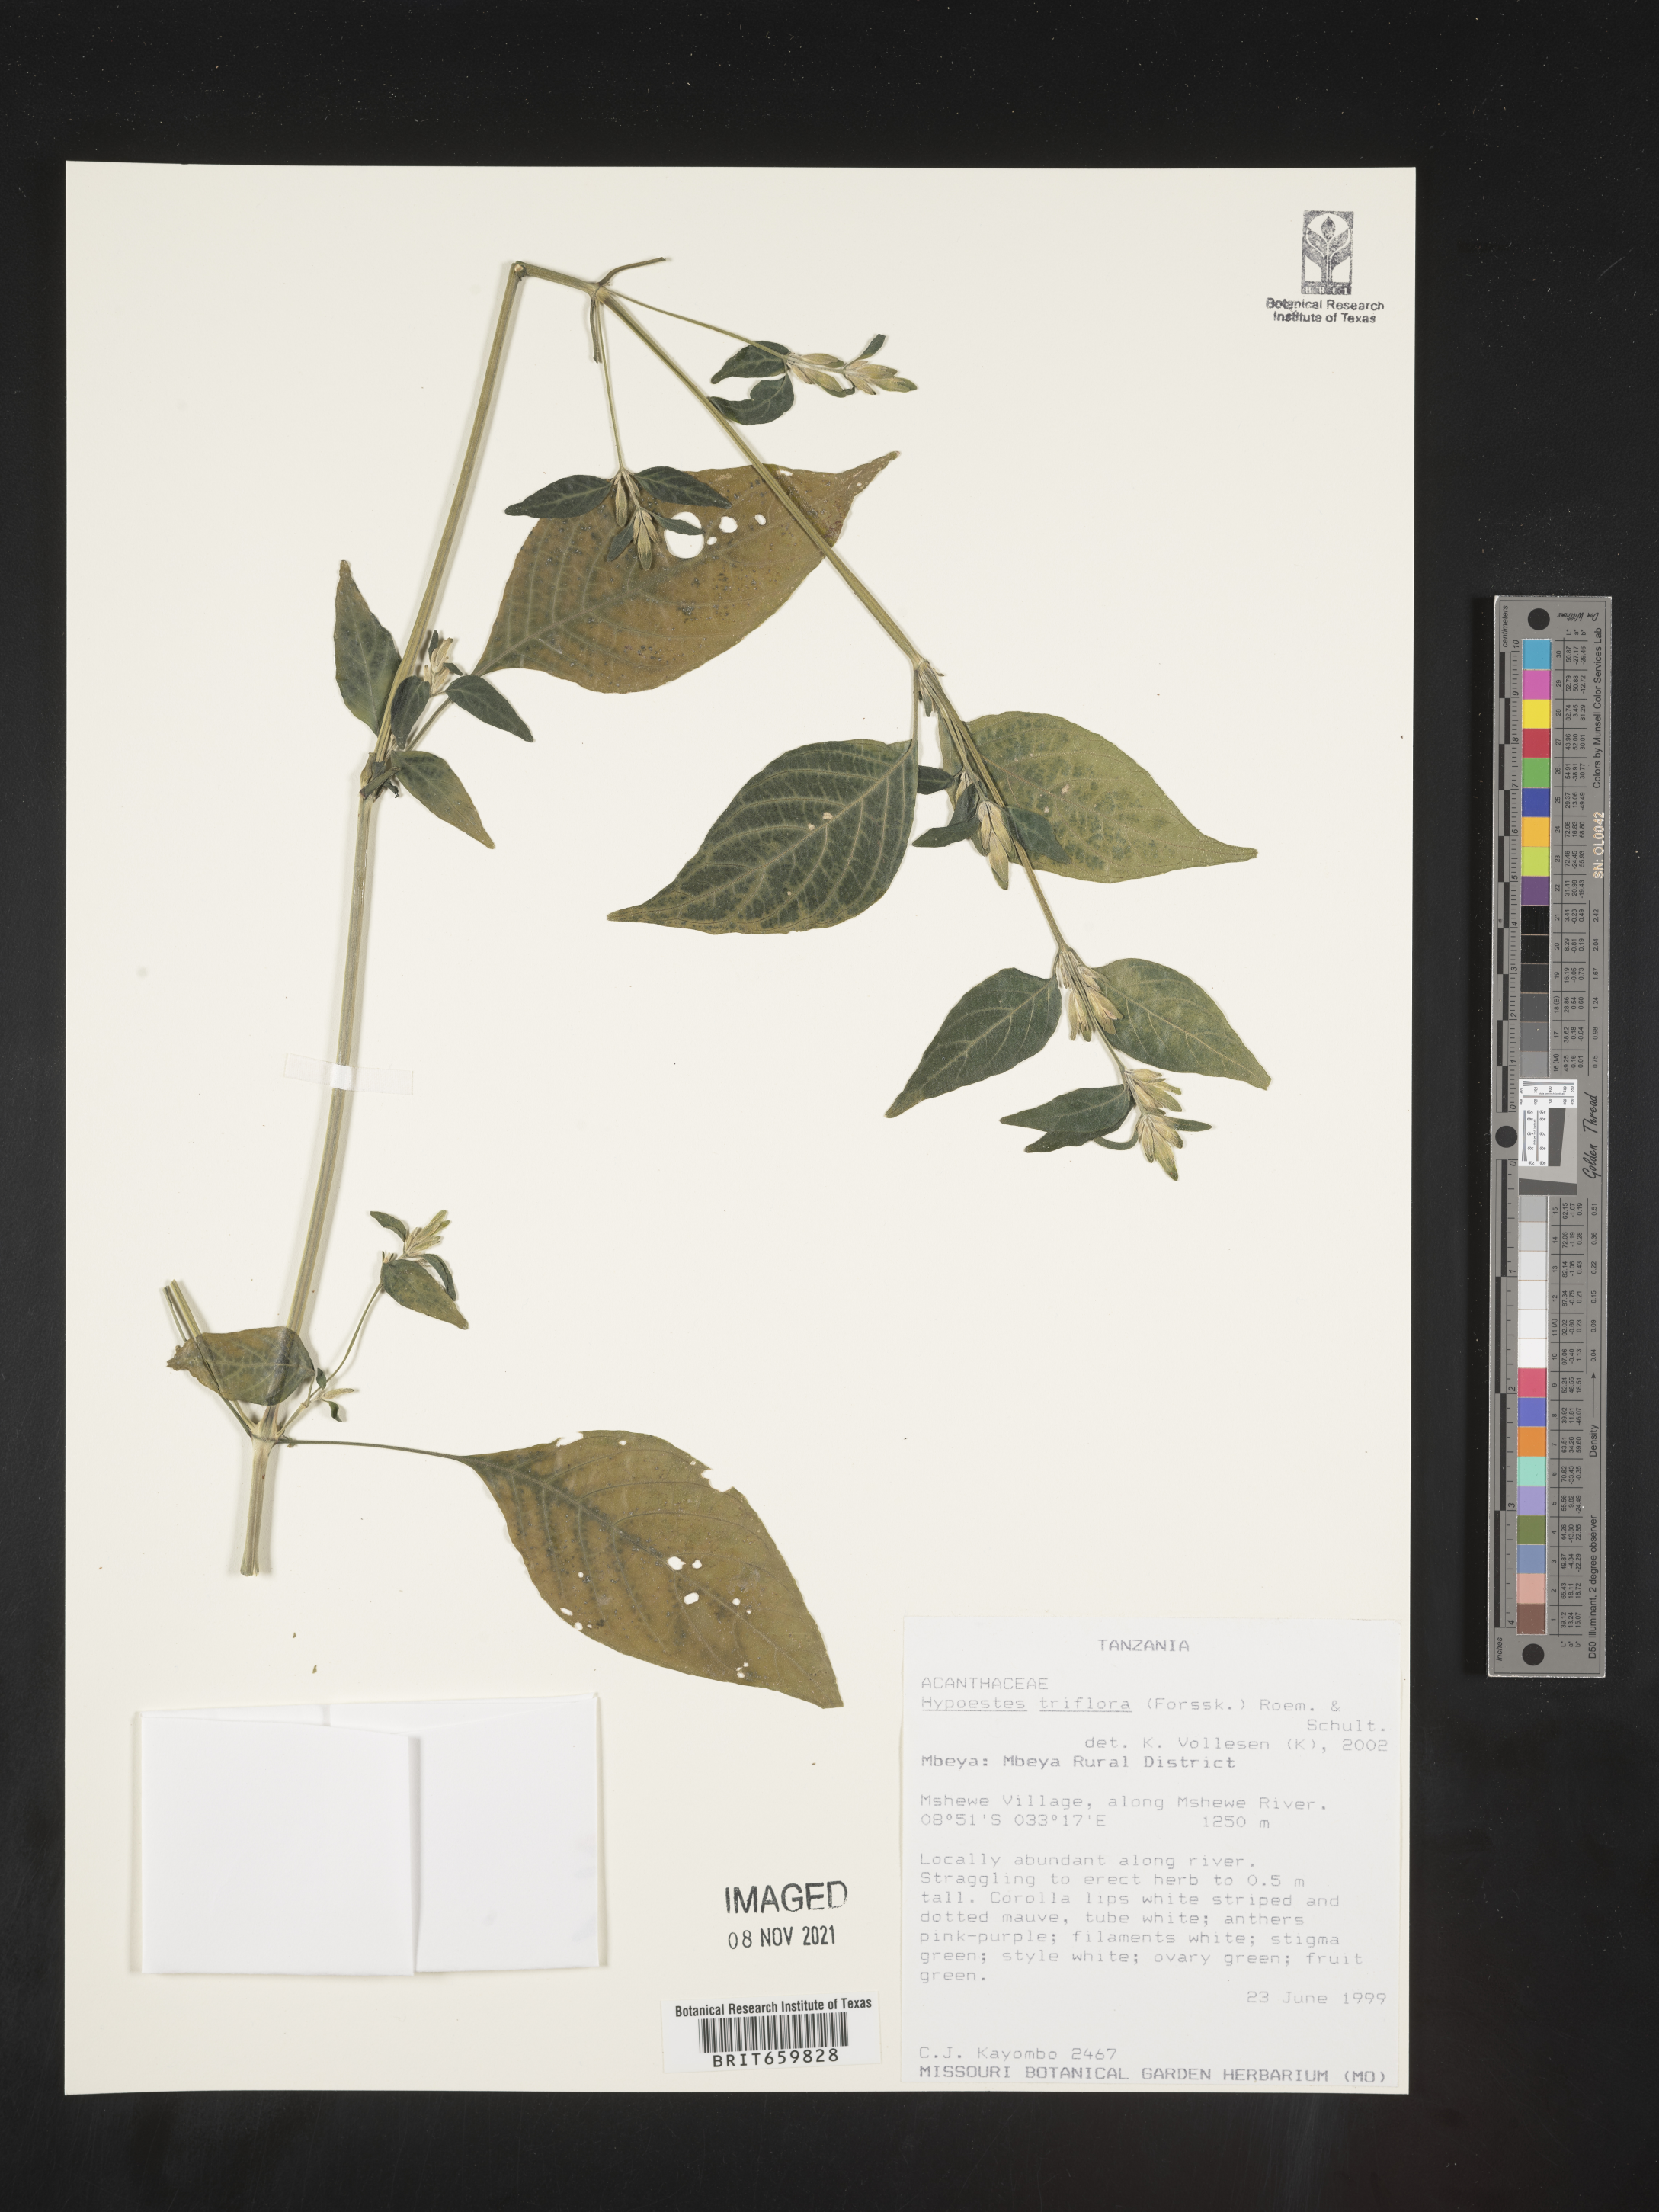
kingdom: Plantae
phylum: Tracheophyta
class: Magnoliopsida
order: Lamiales
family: Acanthaceae
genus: Hypoestes
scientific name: Hypoestes triflora
